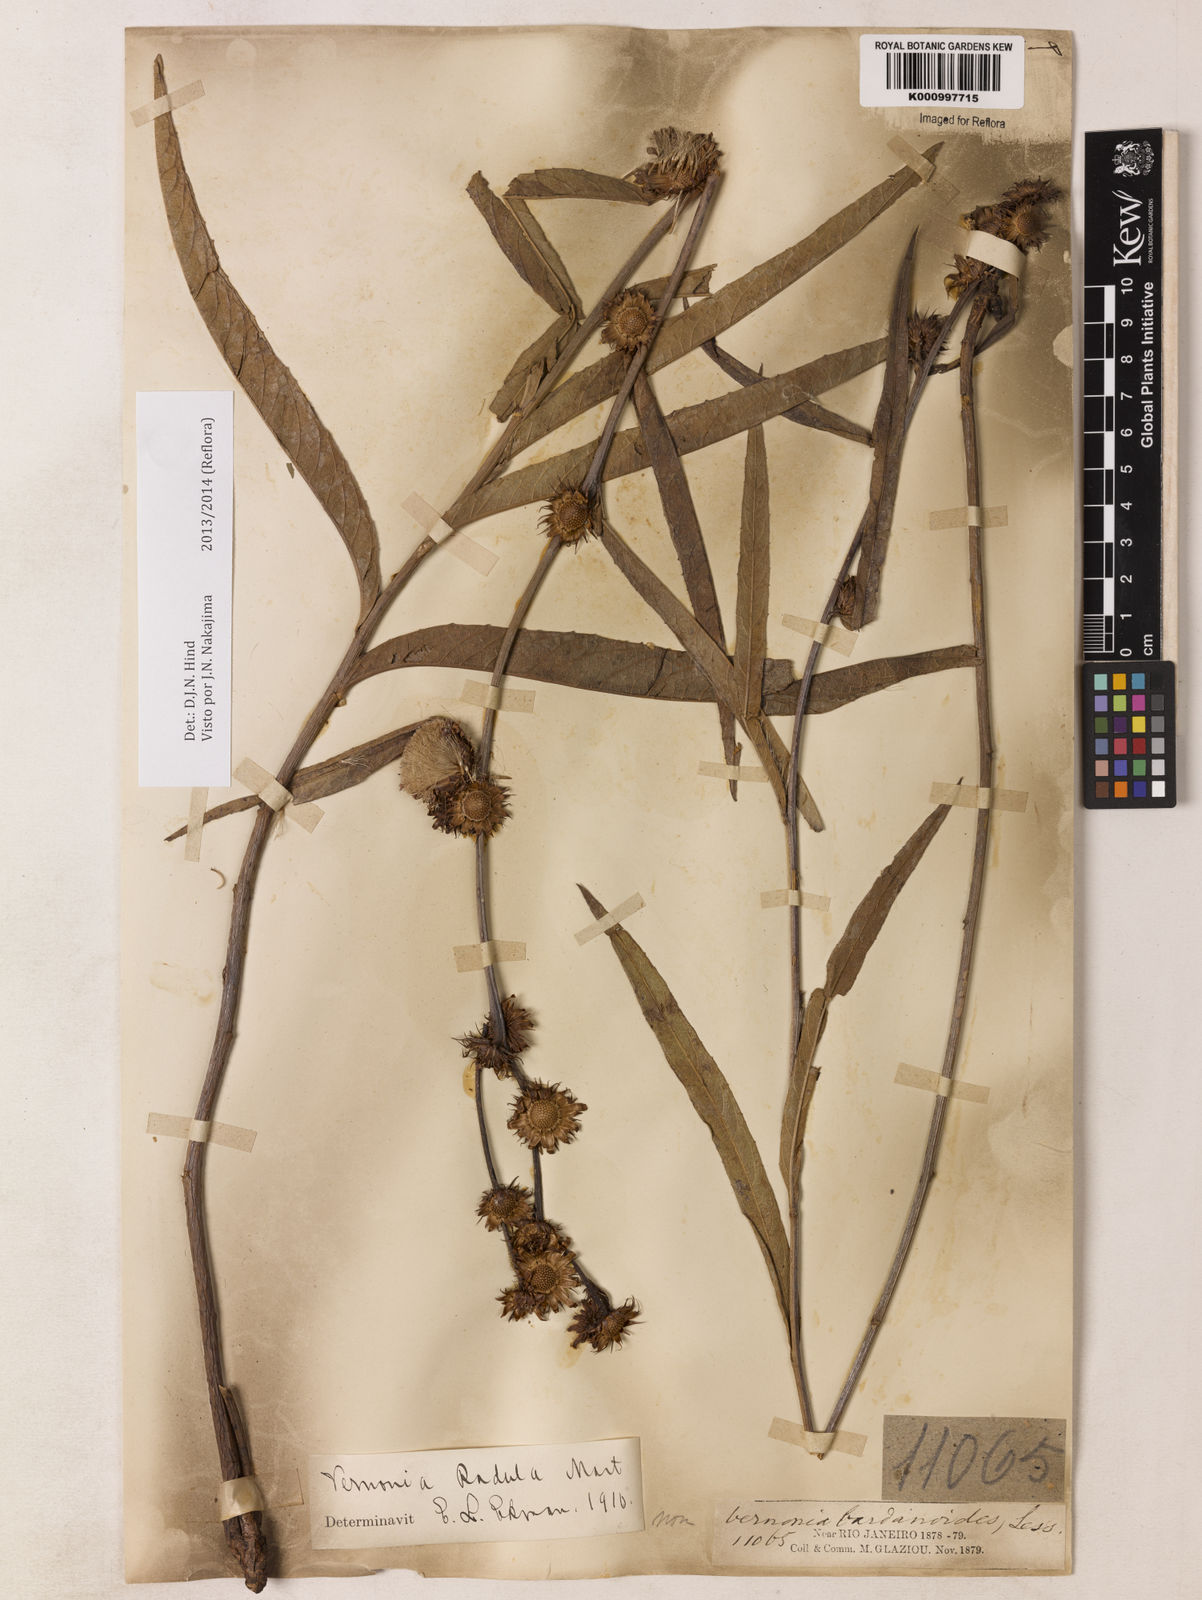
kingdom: Plantae
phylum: Tracheophyta
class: Magnoliopsida
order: Asterales
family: Asteraceae
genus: Lessingianthus
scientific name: Lessingianthus glabratus
